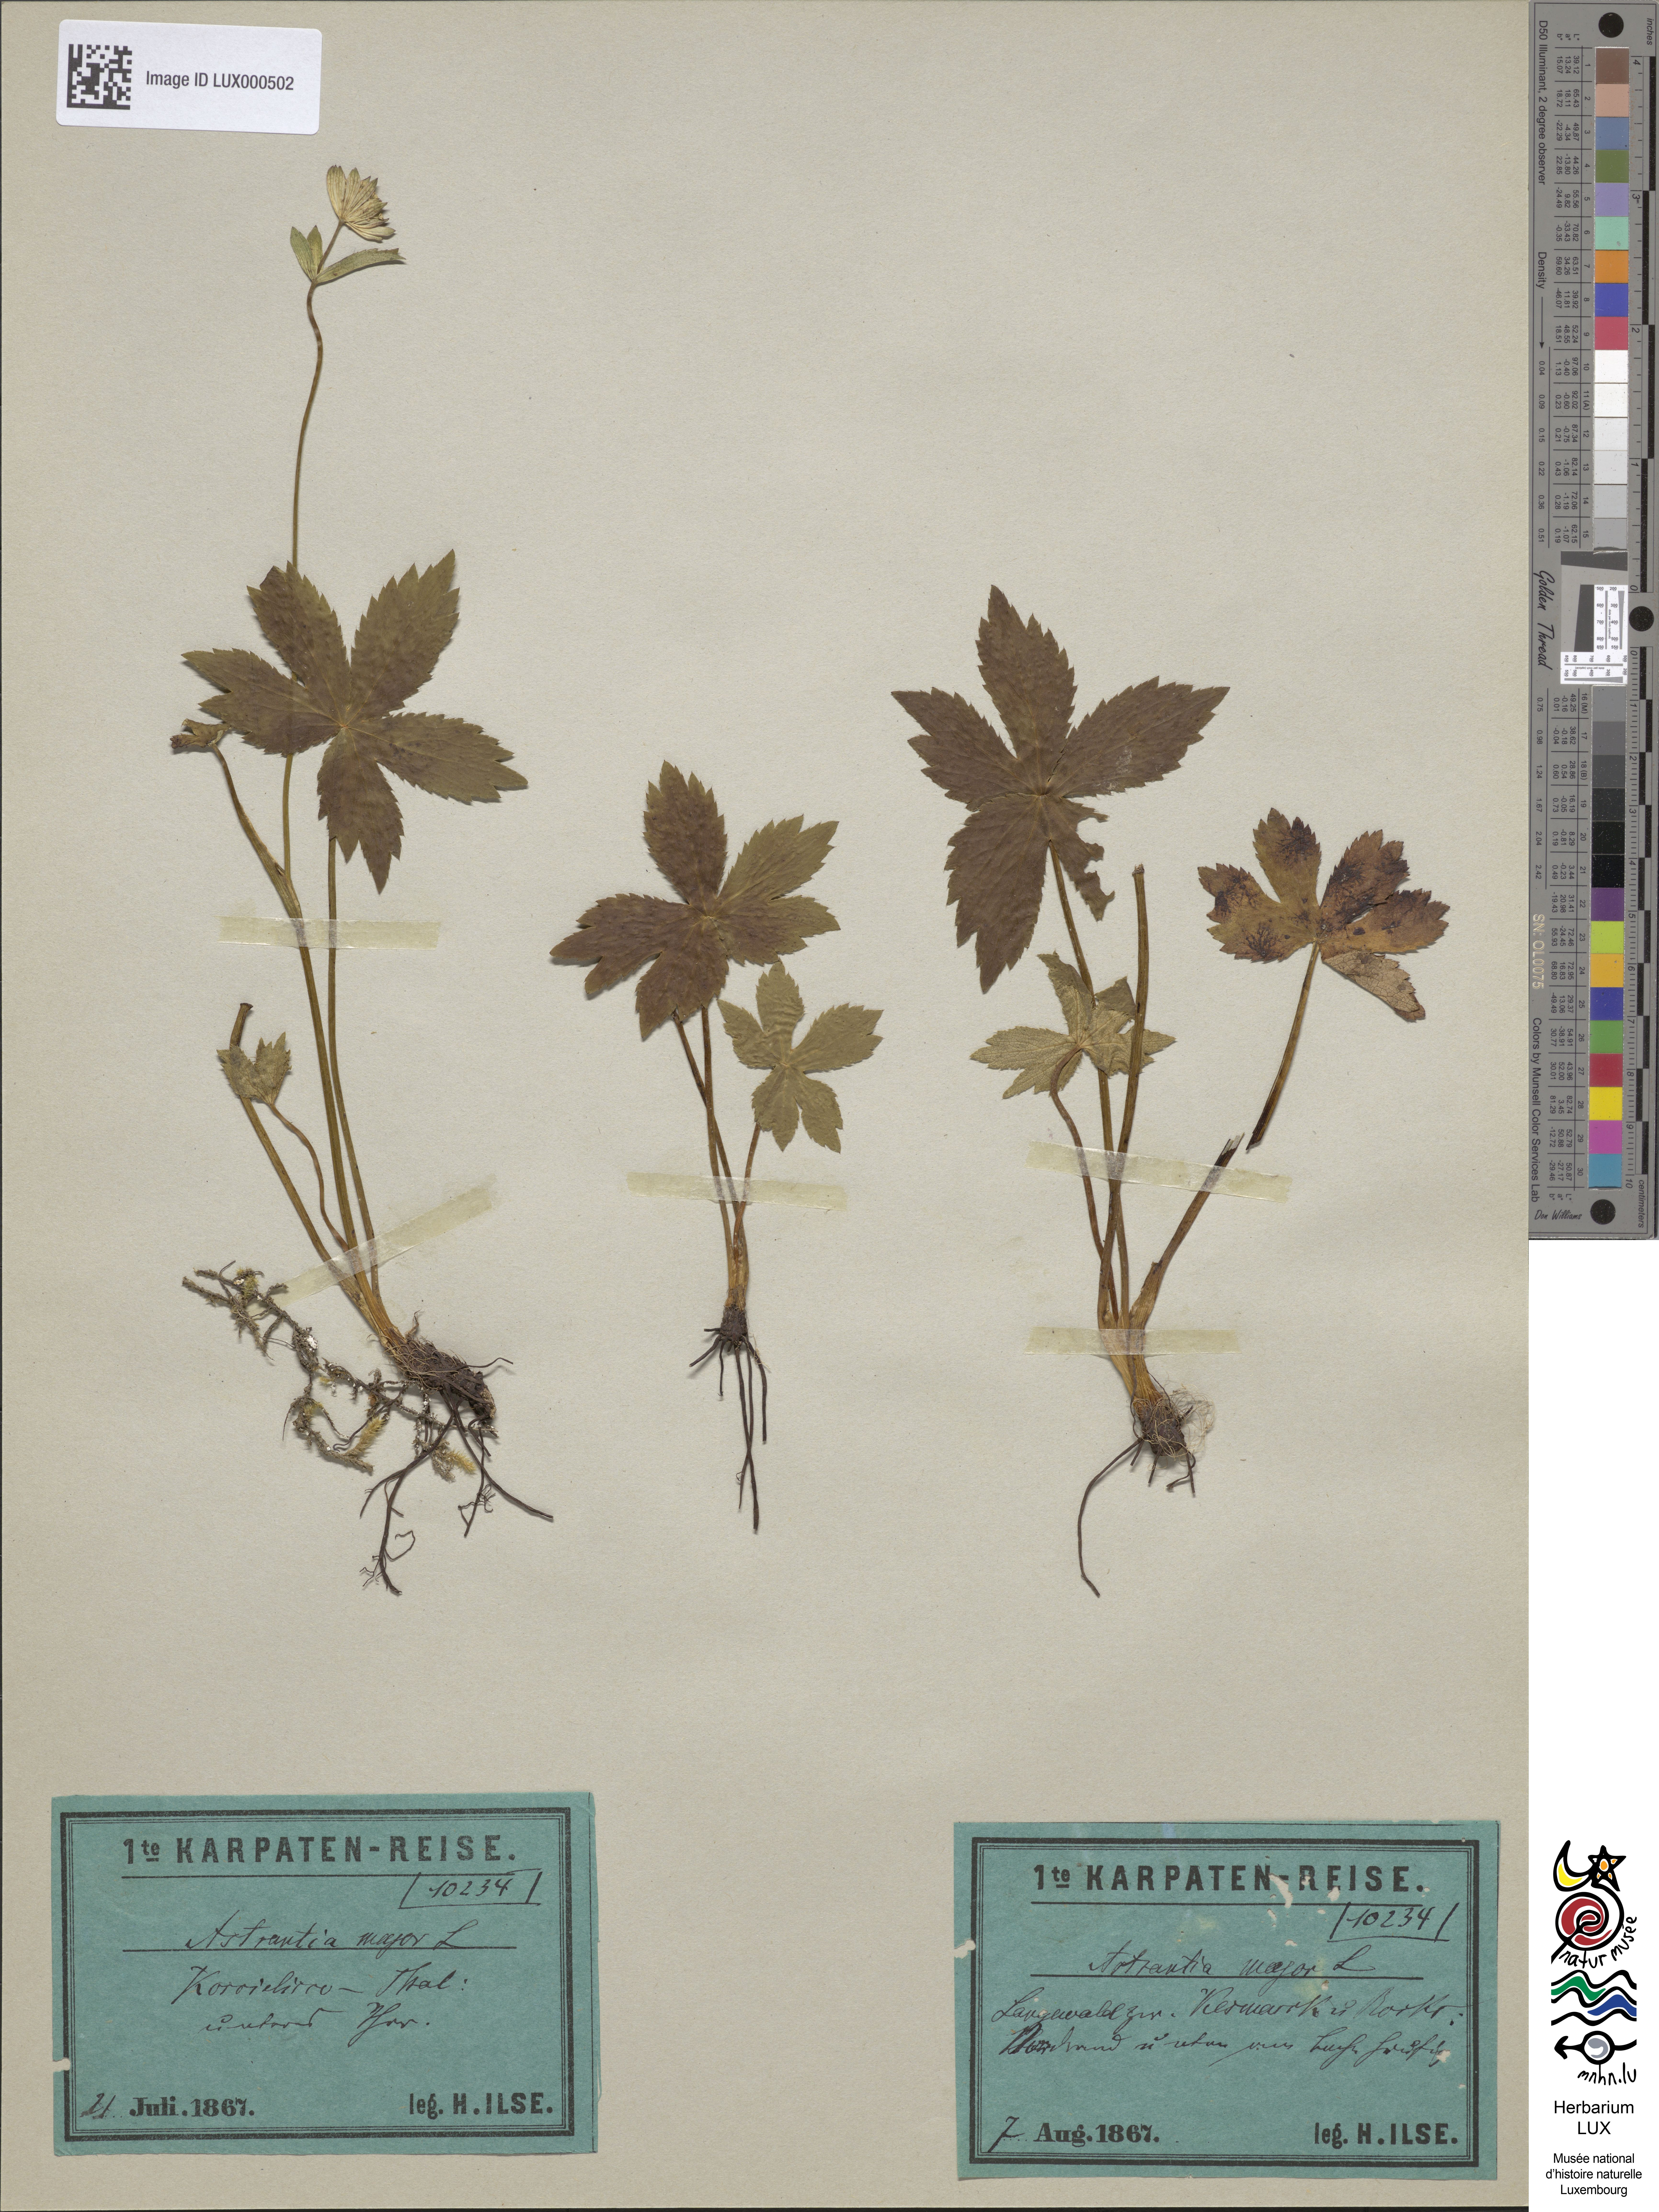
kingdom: Plantae
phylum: Tracheophyta
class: Magnoliopsida
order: Apiales
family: Apiaceae
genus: Astrantia
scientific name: Astrantia major
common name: Greater masterwort
